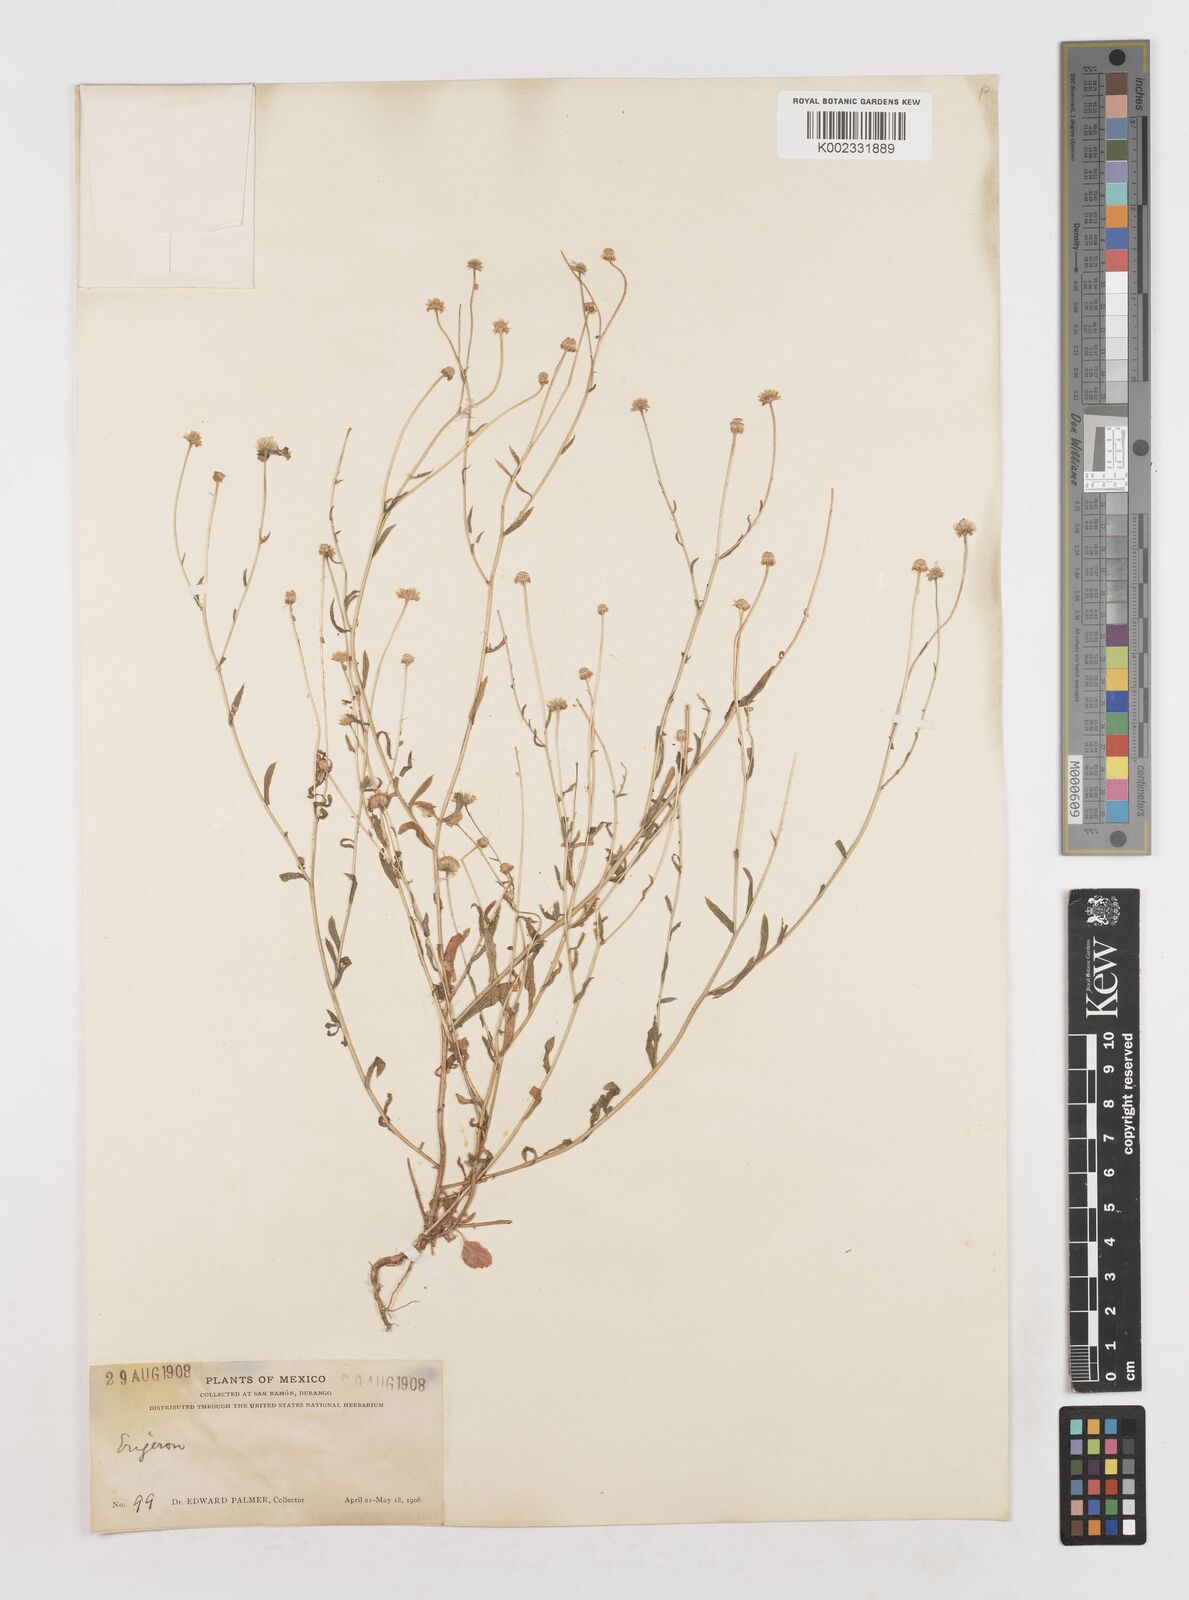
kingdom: Plantae
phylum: Tracheophyta
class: Magnoliopsida
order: Asterales
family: Asteraceae
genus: Erigeron
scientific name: Erigeron
